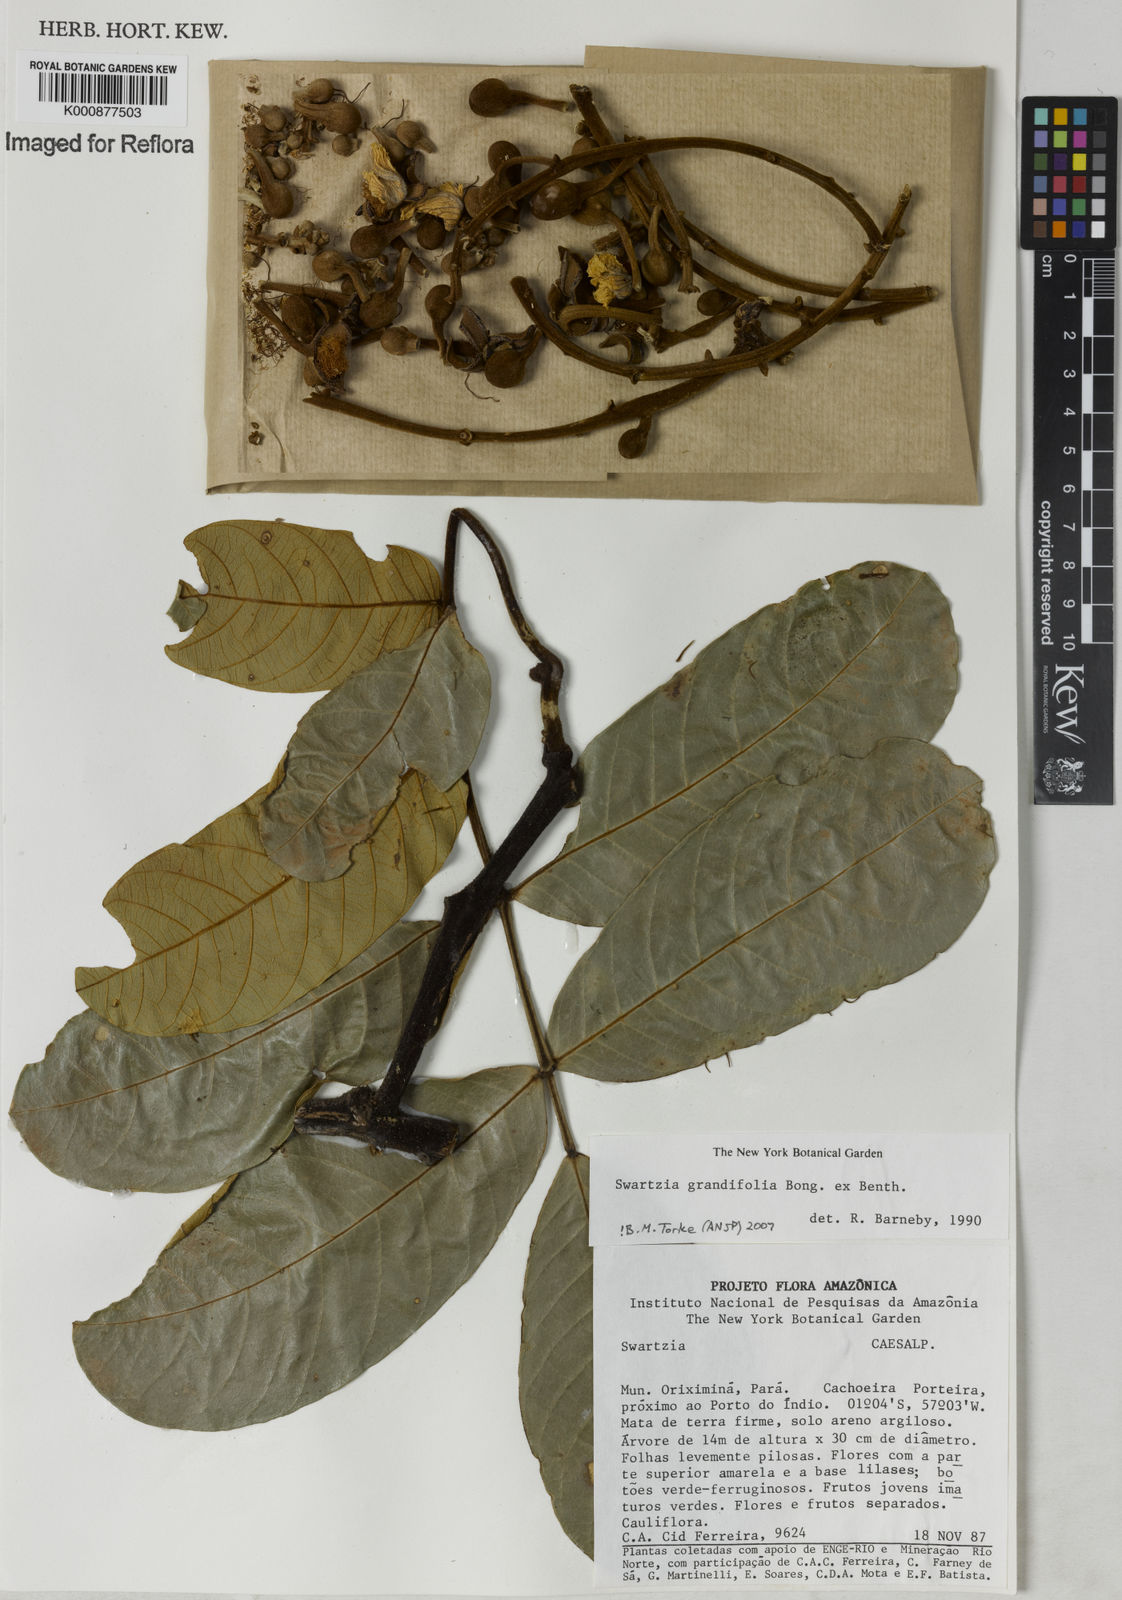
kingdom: Plantae
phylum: Tracheophyta
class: Magnoliopsida
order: Fabales
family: Fabaceae
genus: Swartzia
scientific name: Swartzia grandifolia
